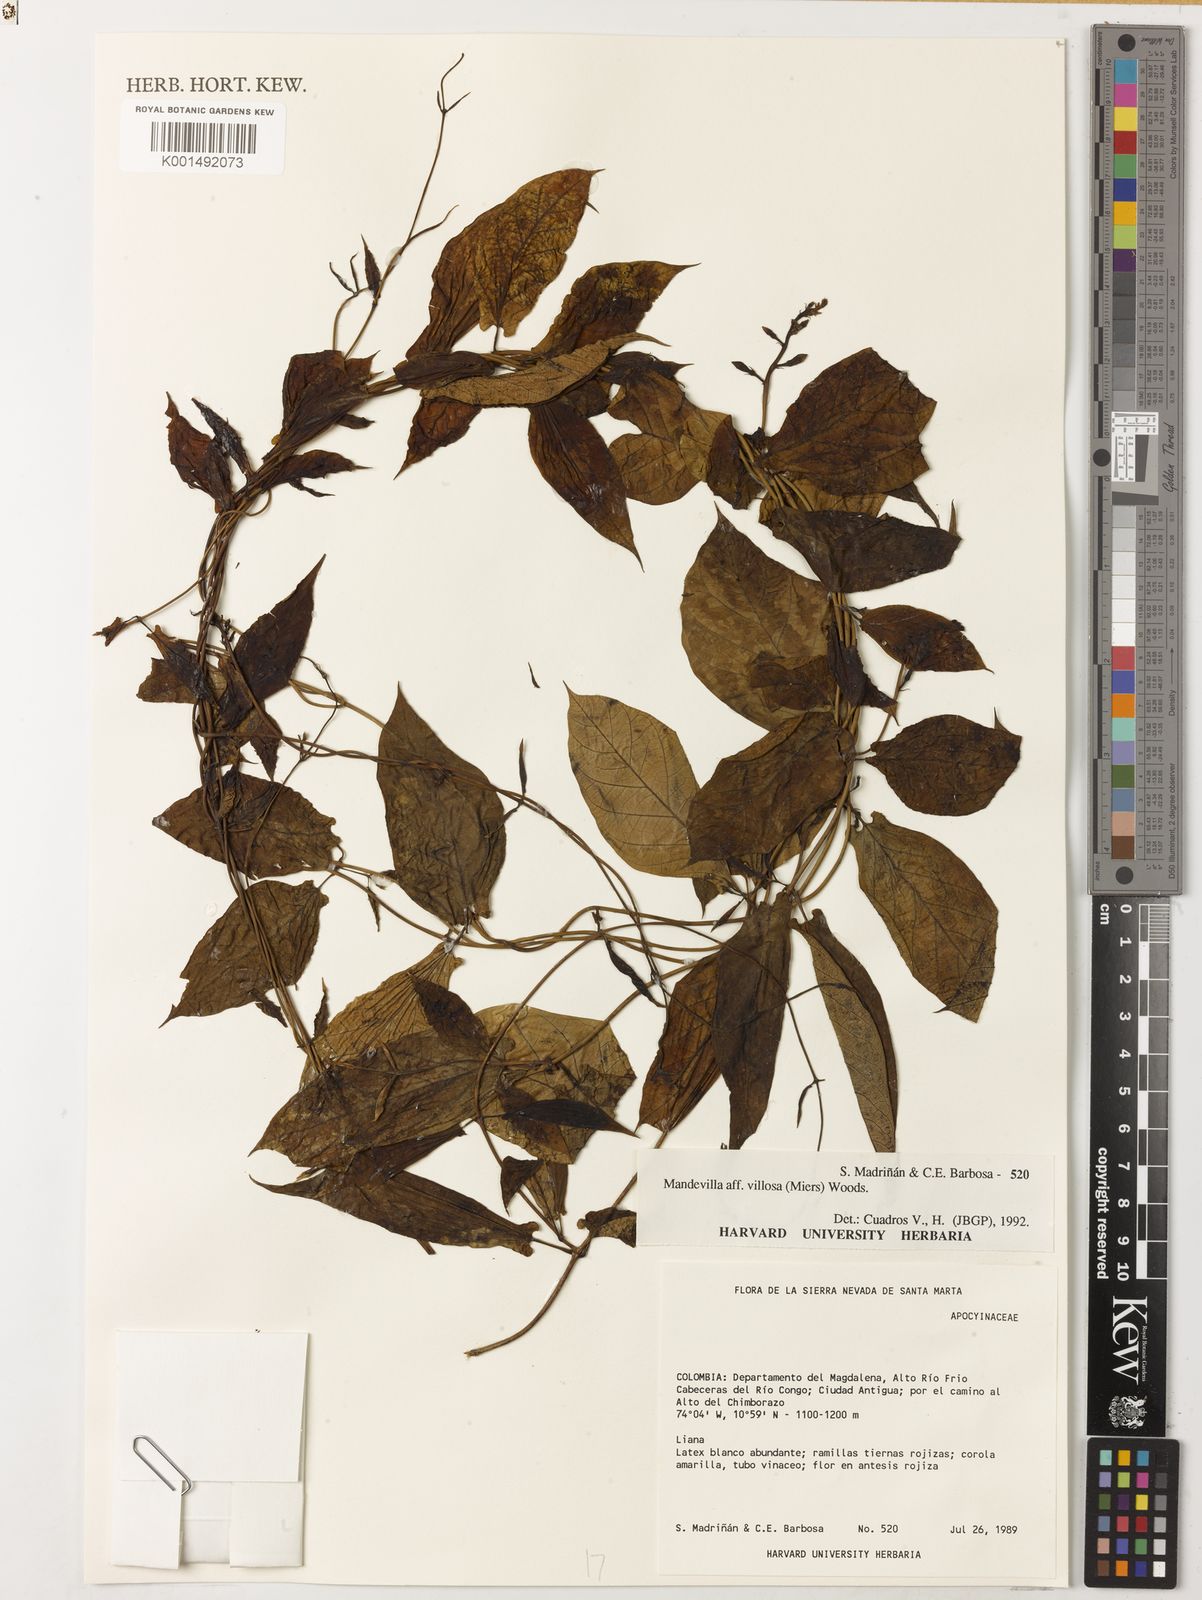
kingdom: Plantae
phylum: Tracheophyta
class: Magnoliopsida
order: Gentianales
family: Apocynaceae
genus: Mandevilla
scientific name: Mandevilla villosa
